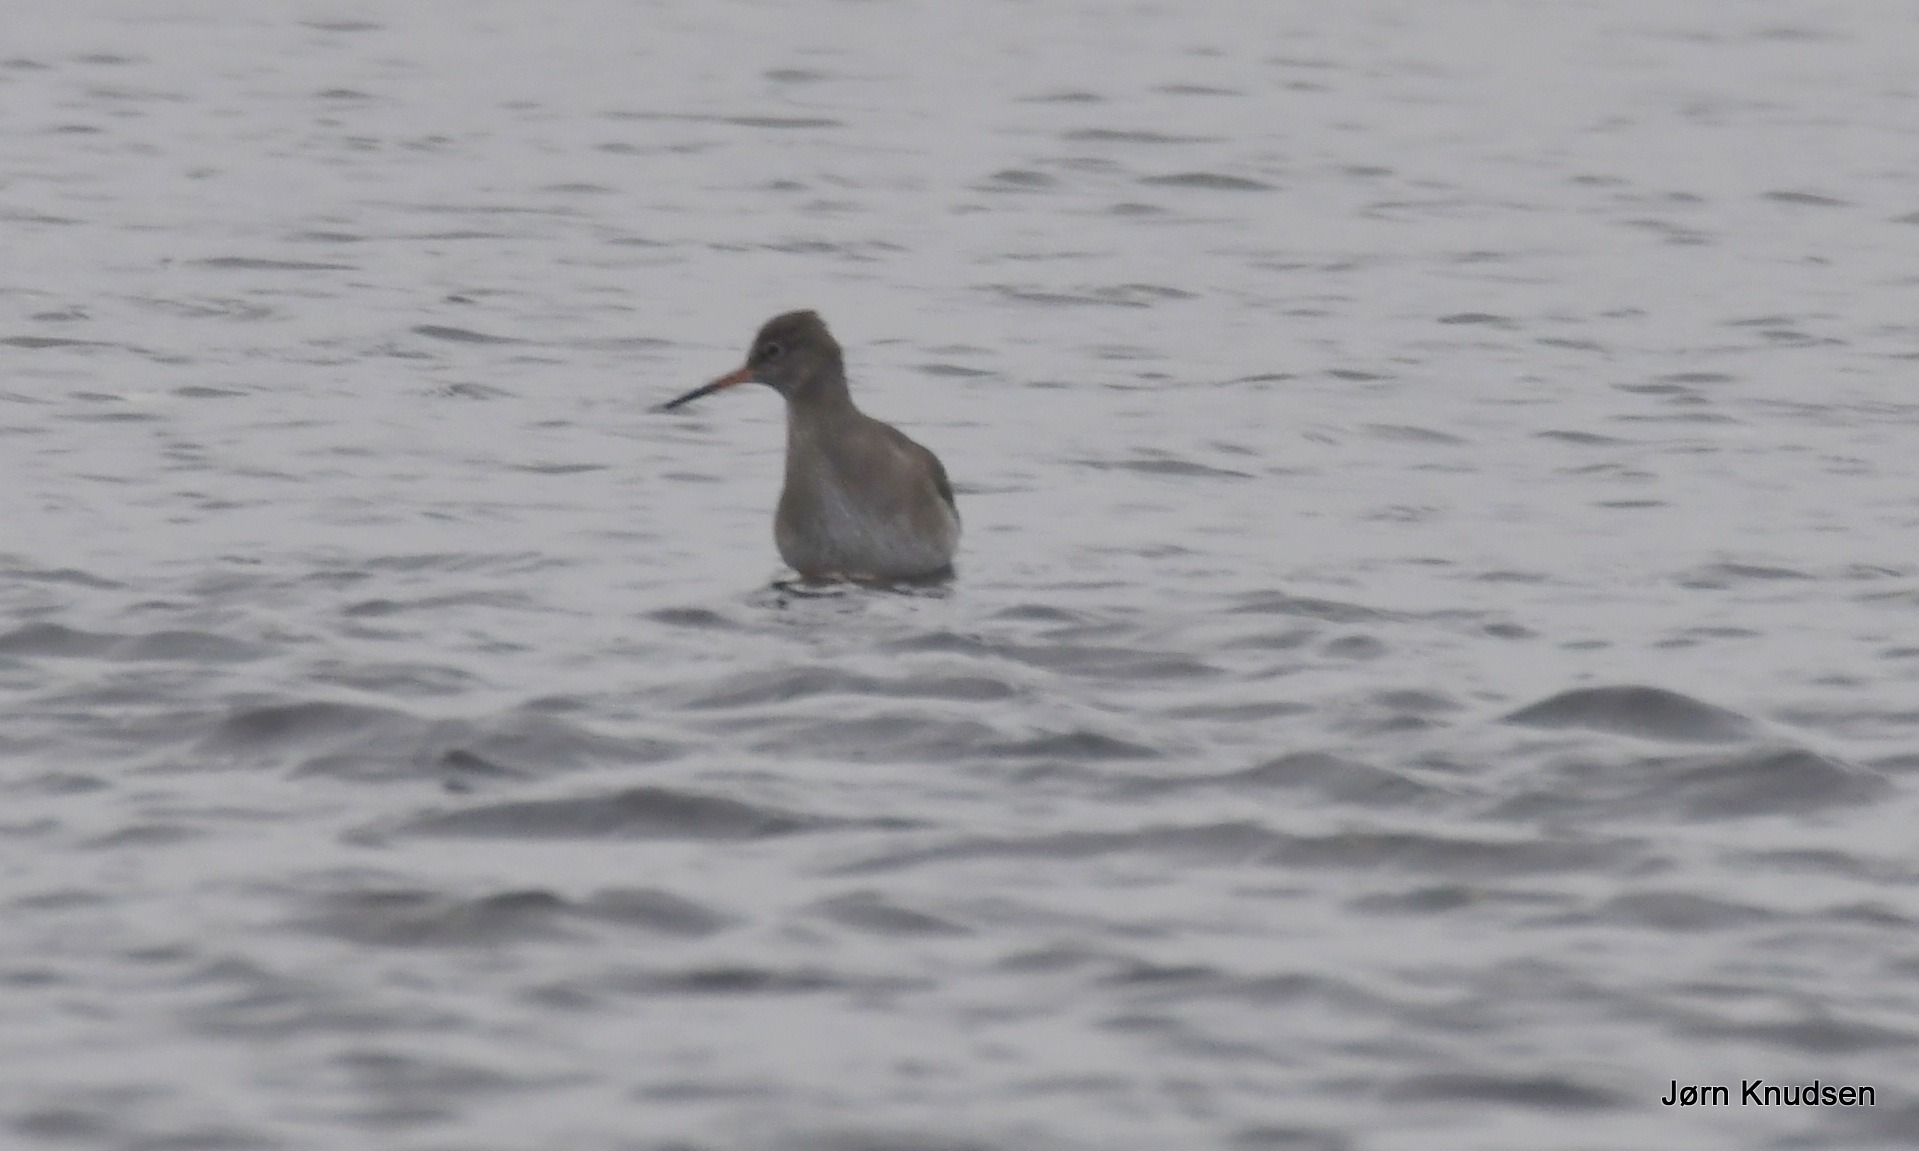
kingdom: Animalia
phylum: Chordata
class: Aves
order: Charadriiformes
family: Scolopacidae
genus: Tringa
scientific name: Tringa totanus
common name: Rødben
